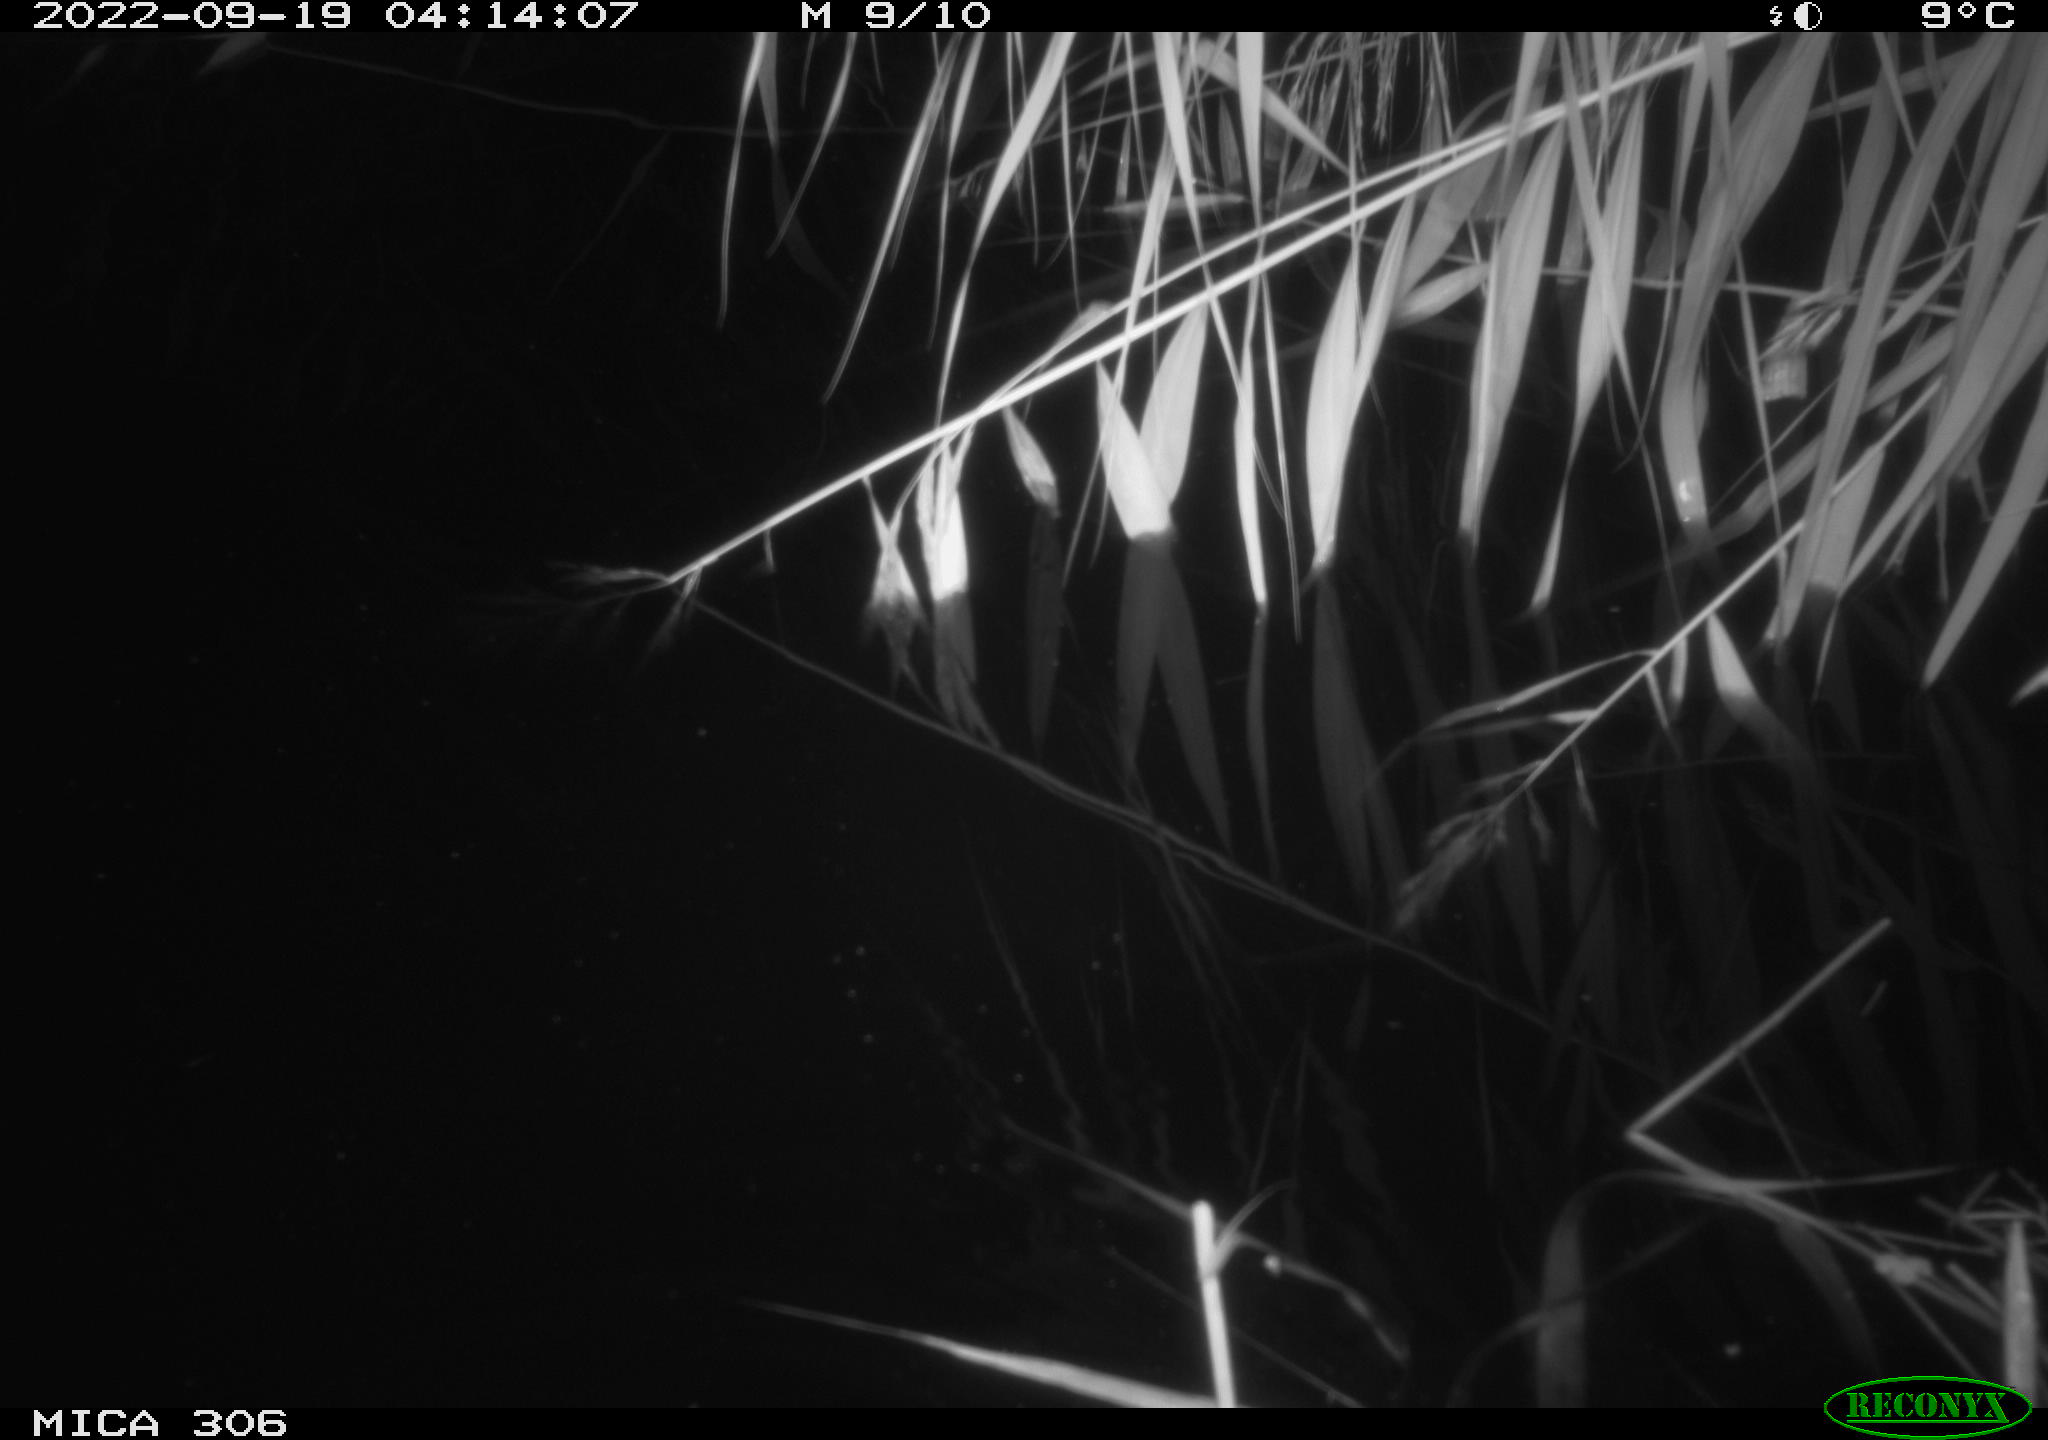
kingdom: Animalia
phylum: Chordata
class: Mammalia
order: Rodentia
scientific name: Rodentia
